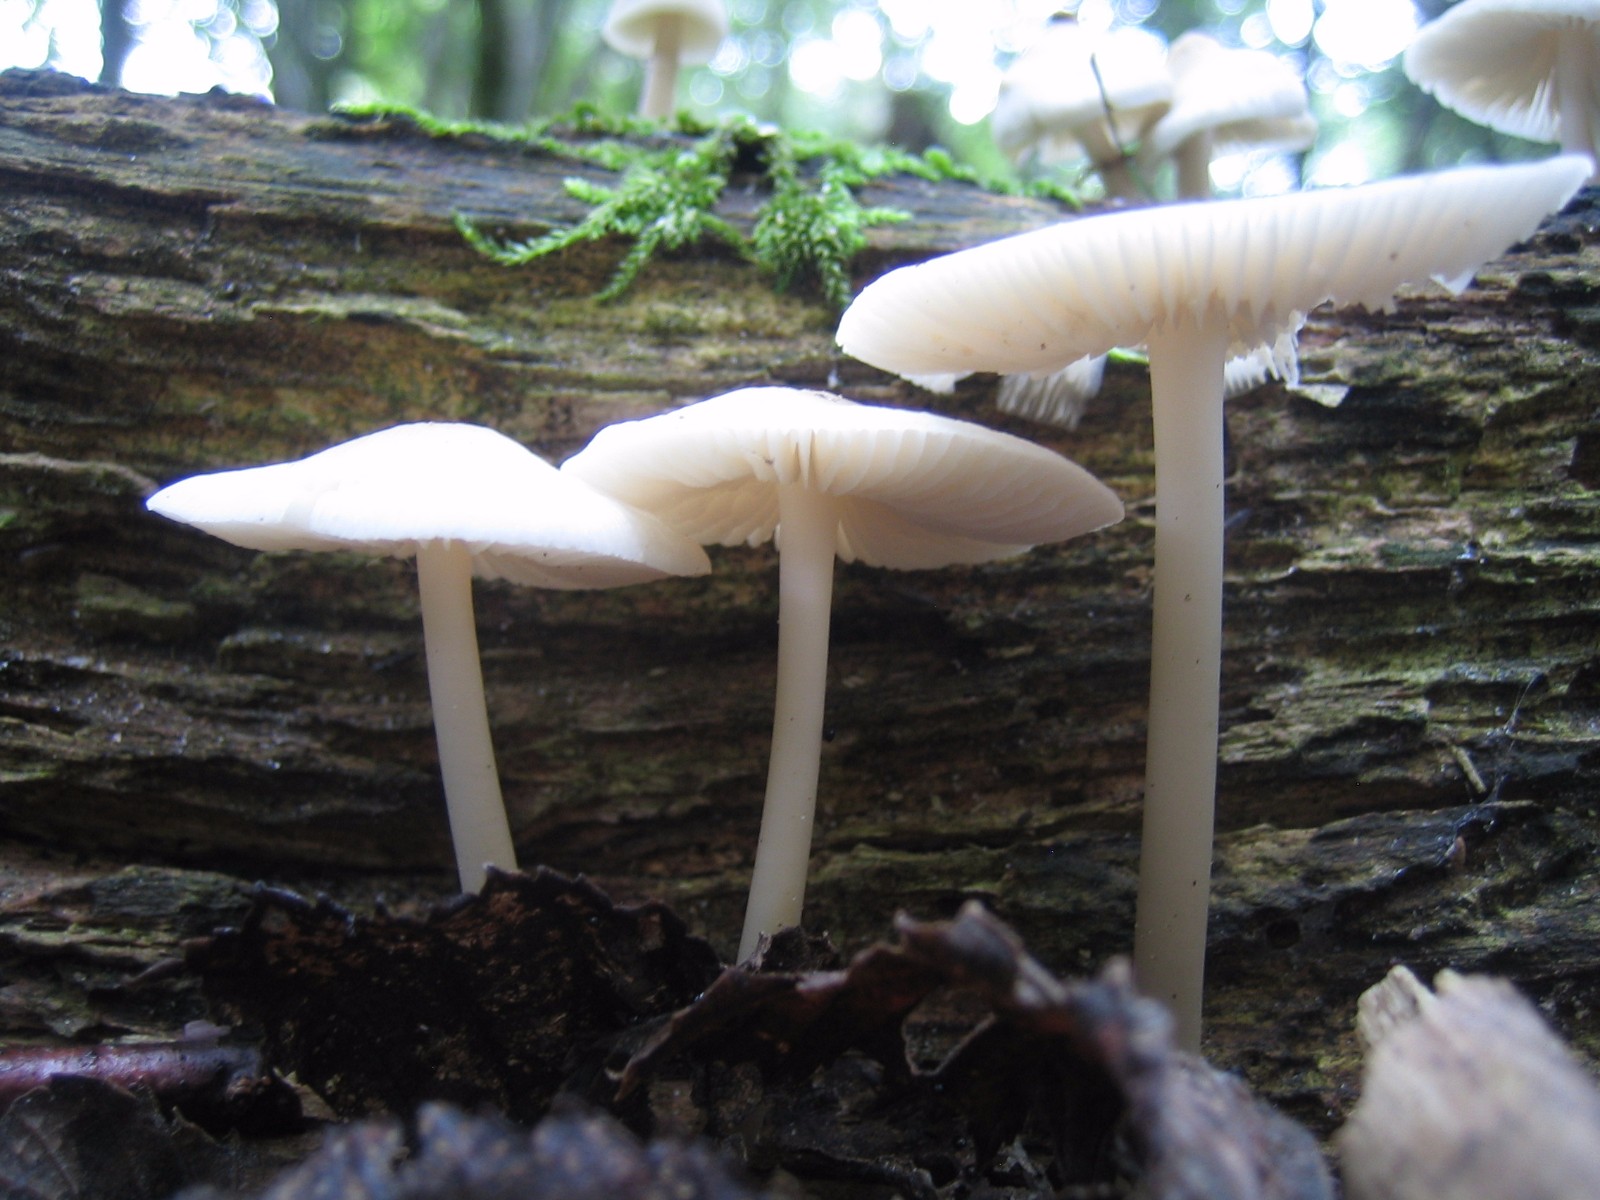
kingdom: Fungi
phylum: Basidiomycota
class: Agaricomycetes
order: Agaricales
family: Mycenaceae
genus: Mycena
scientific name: Mycena galericulata
